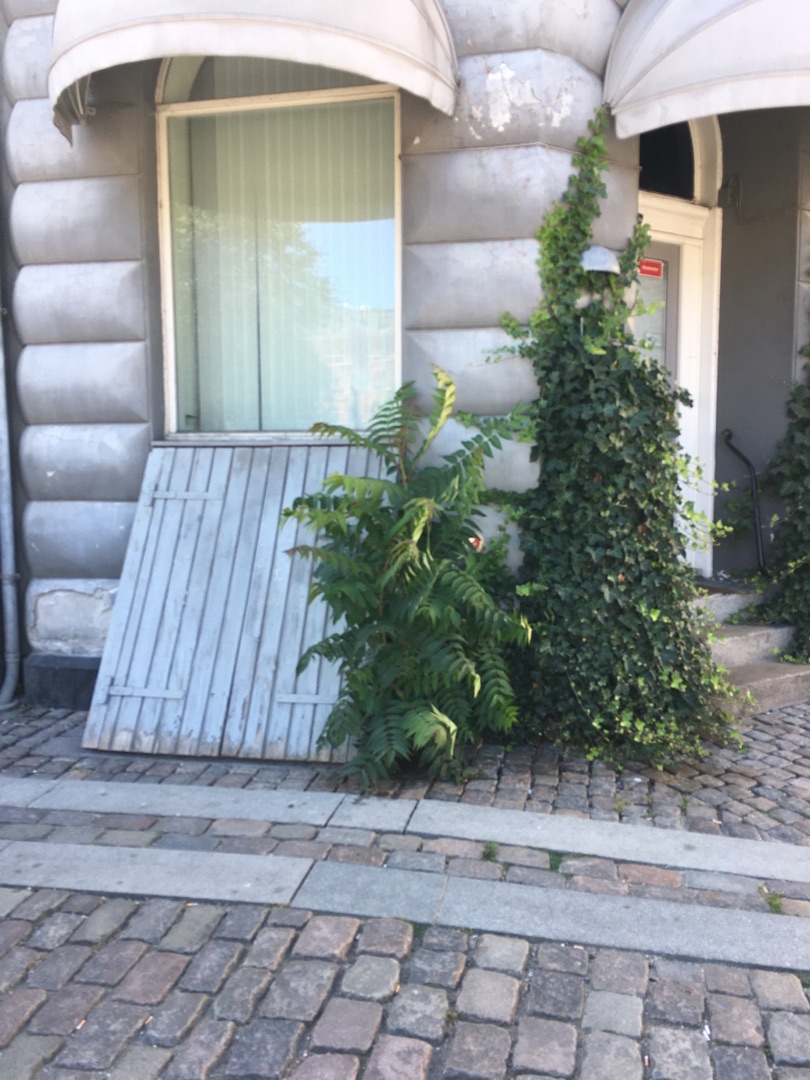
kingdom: Plantae
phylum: Tracheophyta
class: Magnoliopsida
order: Sapindales
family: Simaroubaceae
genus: Ailanthus
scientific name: Ailanthus altissima
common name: Skyrækker
